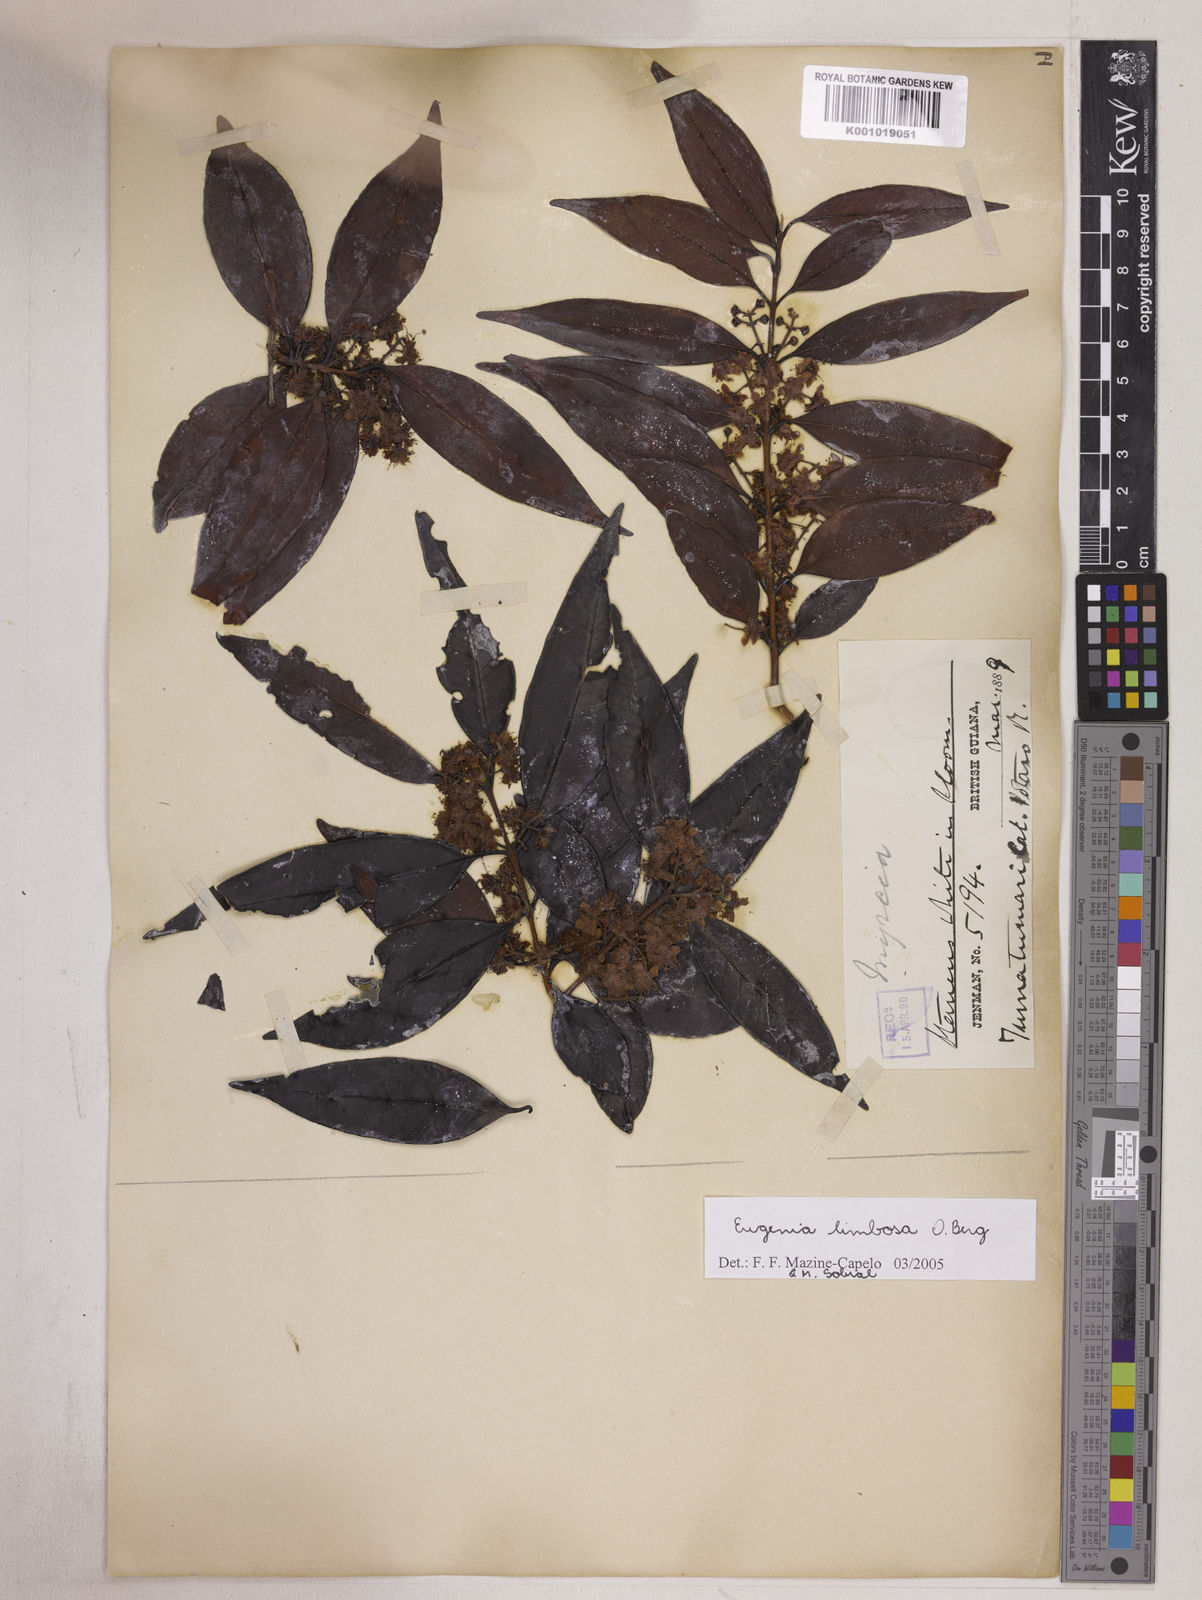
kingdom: Plantae
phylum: Tracheophyta
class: Magnoliopsida
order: Myrtales
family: Myrtaceae
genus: Eugenia
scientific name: Eugenia limbosa
